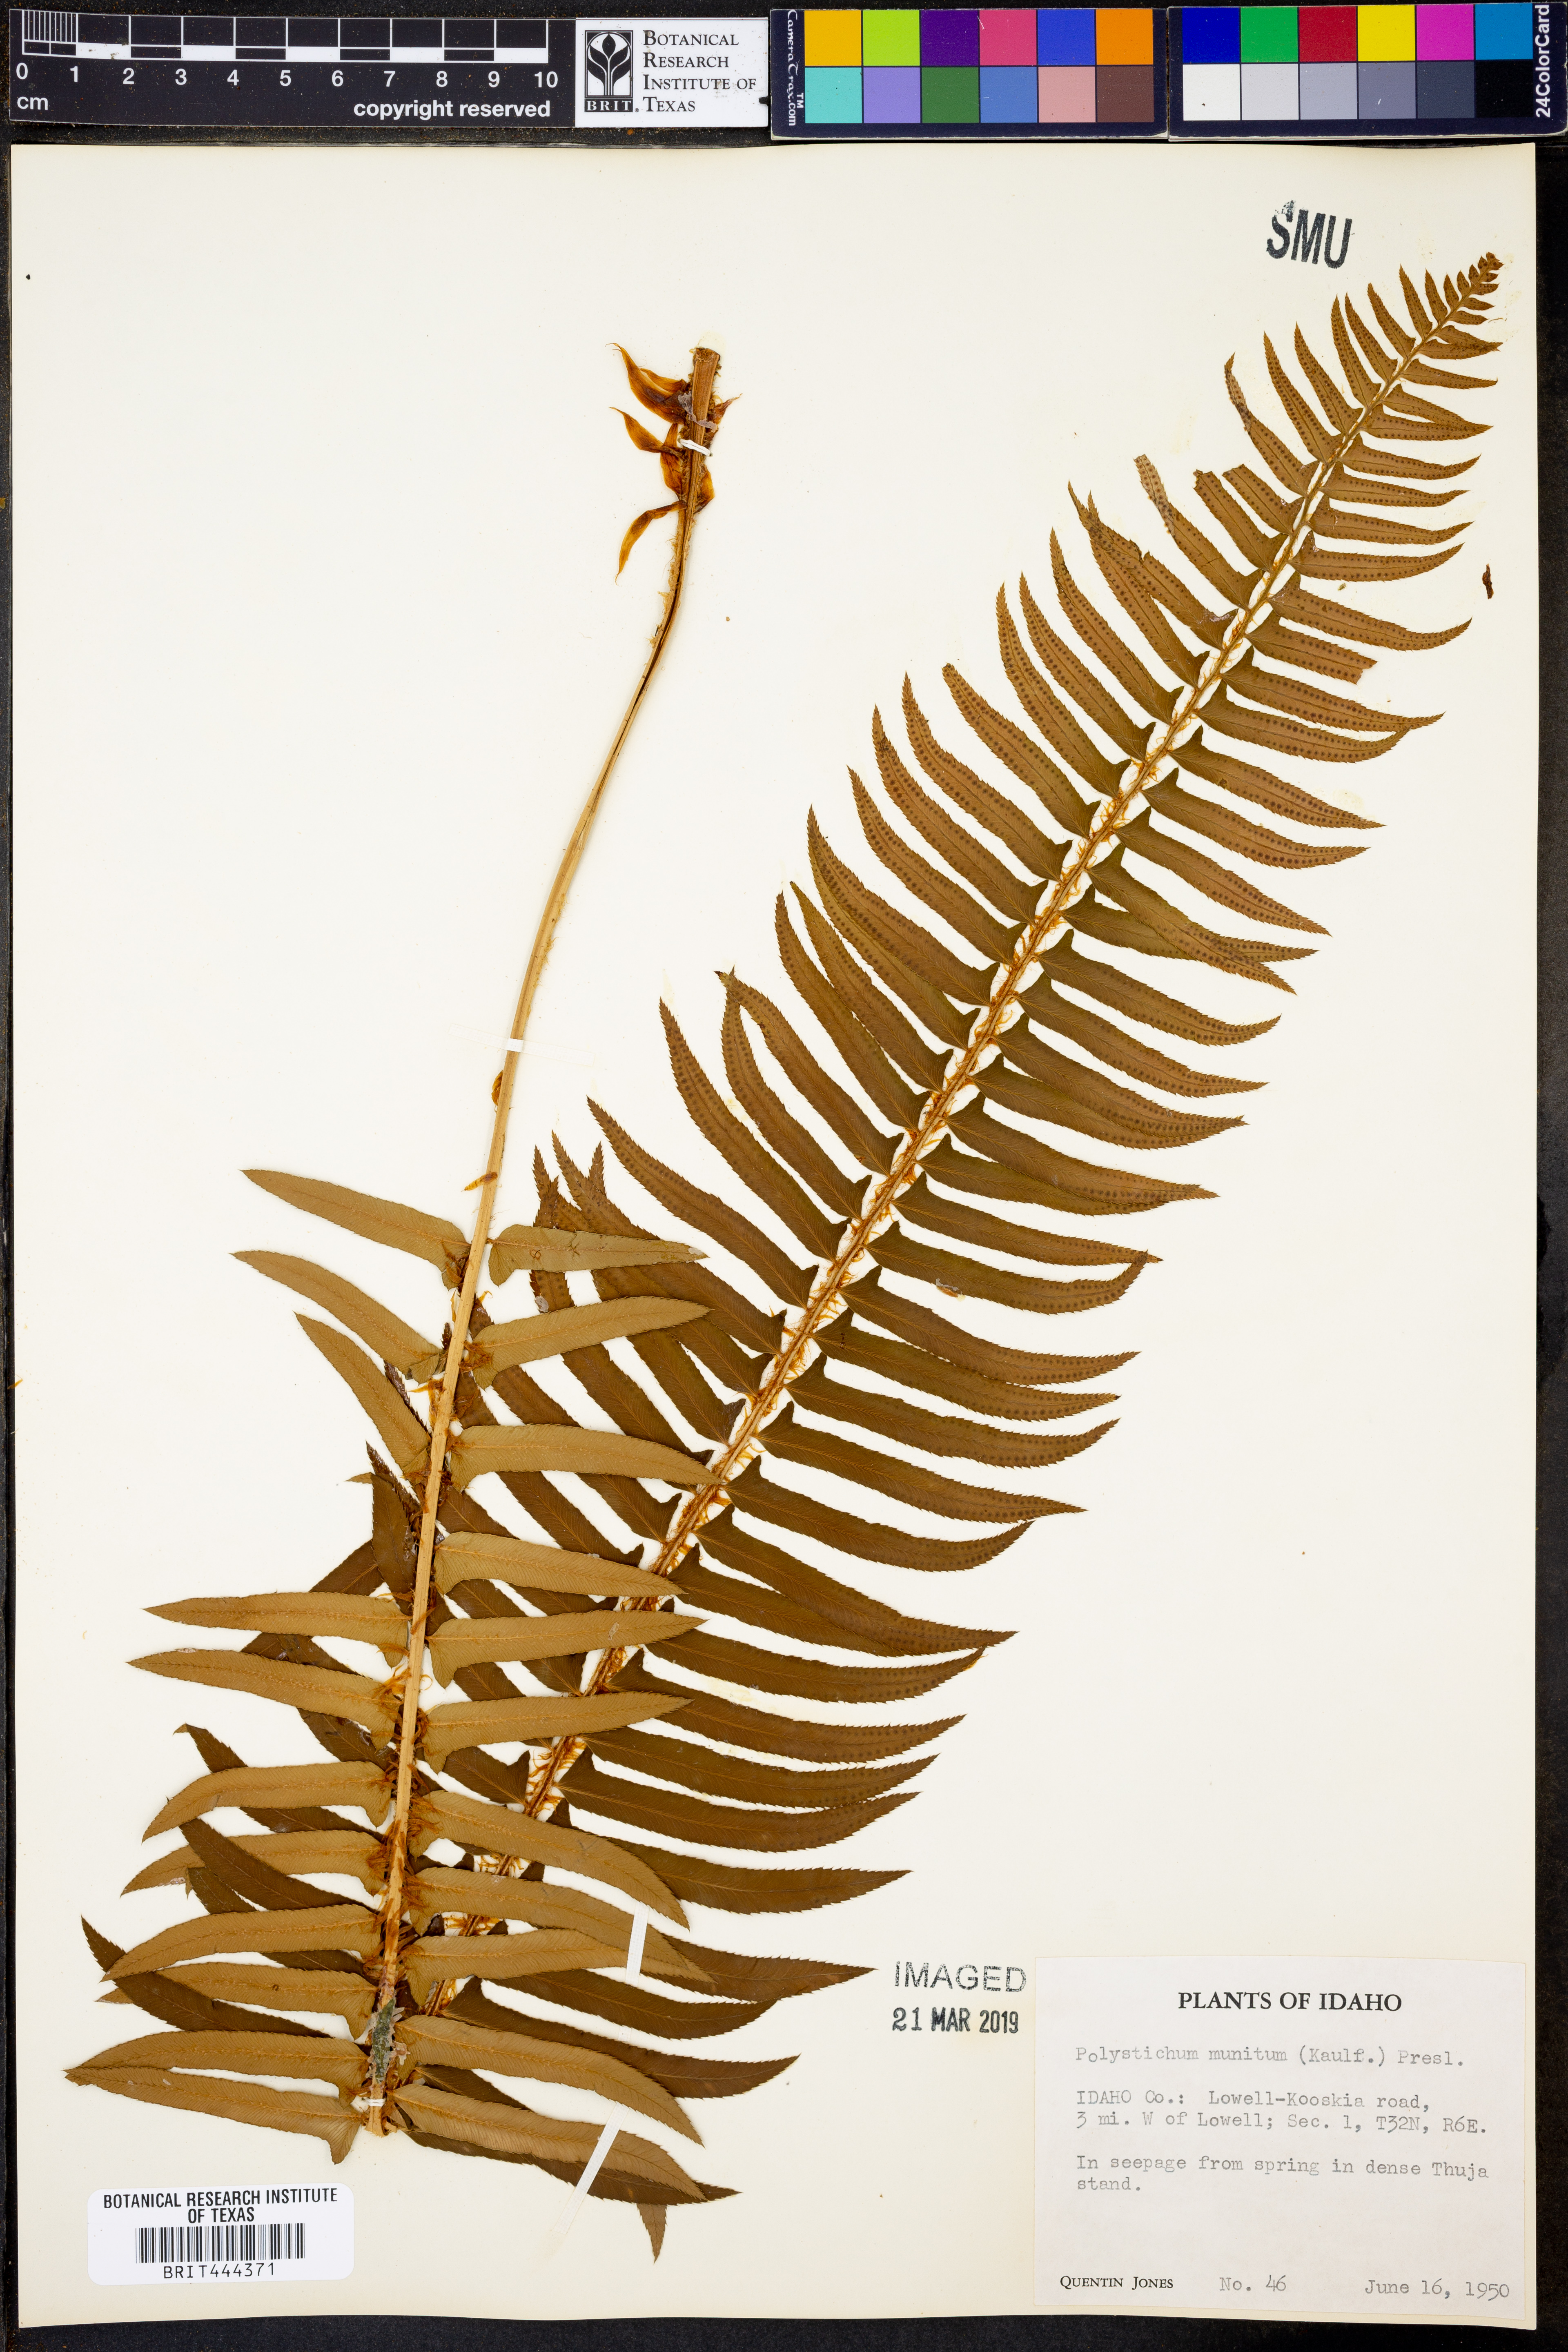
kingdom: Plantae
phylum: Tracheophyta
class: Polypodiopsida
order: Polypodiales
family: Dryopteridaceae
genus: Polystichum
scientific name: Polystichum munitum
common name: Western sword-fern
